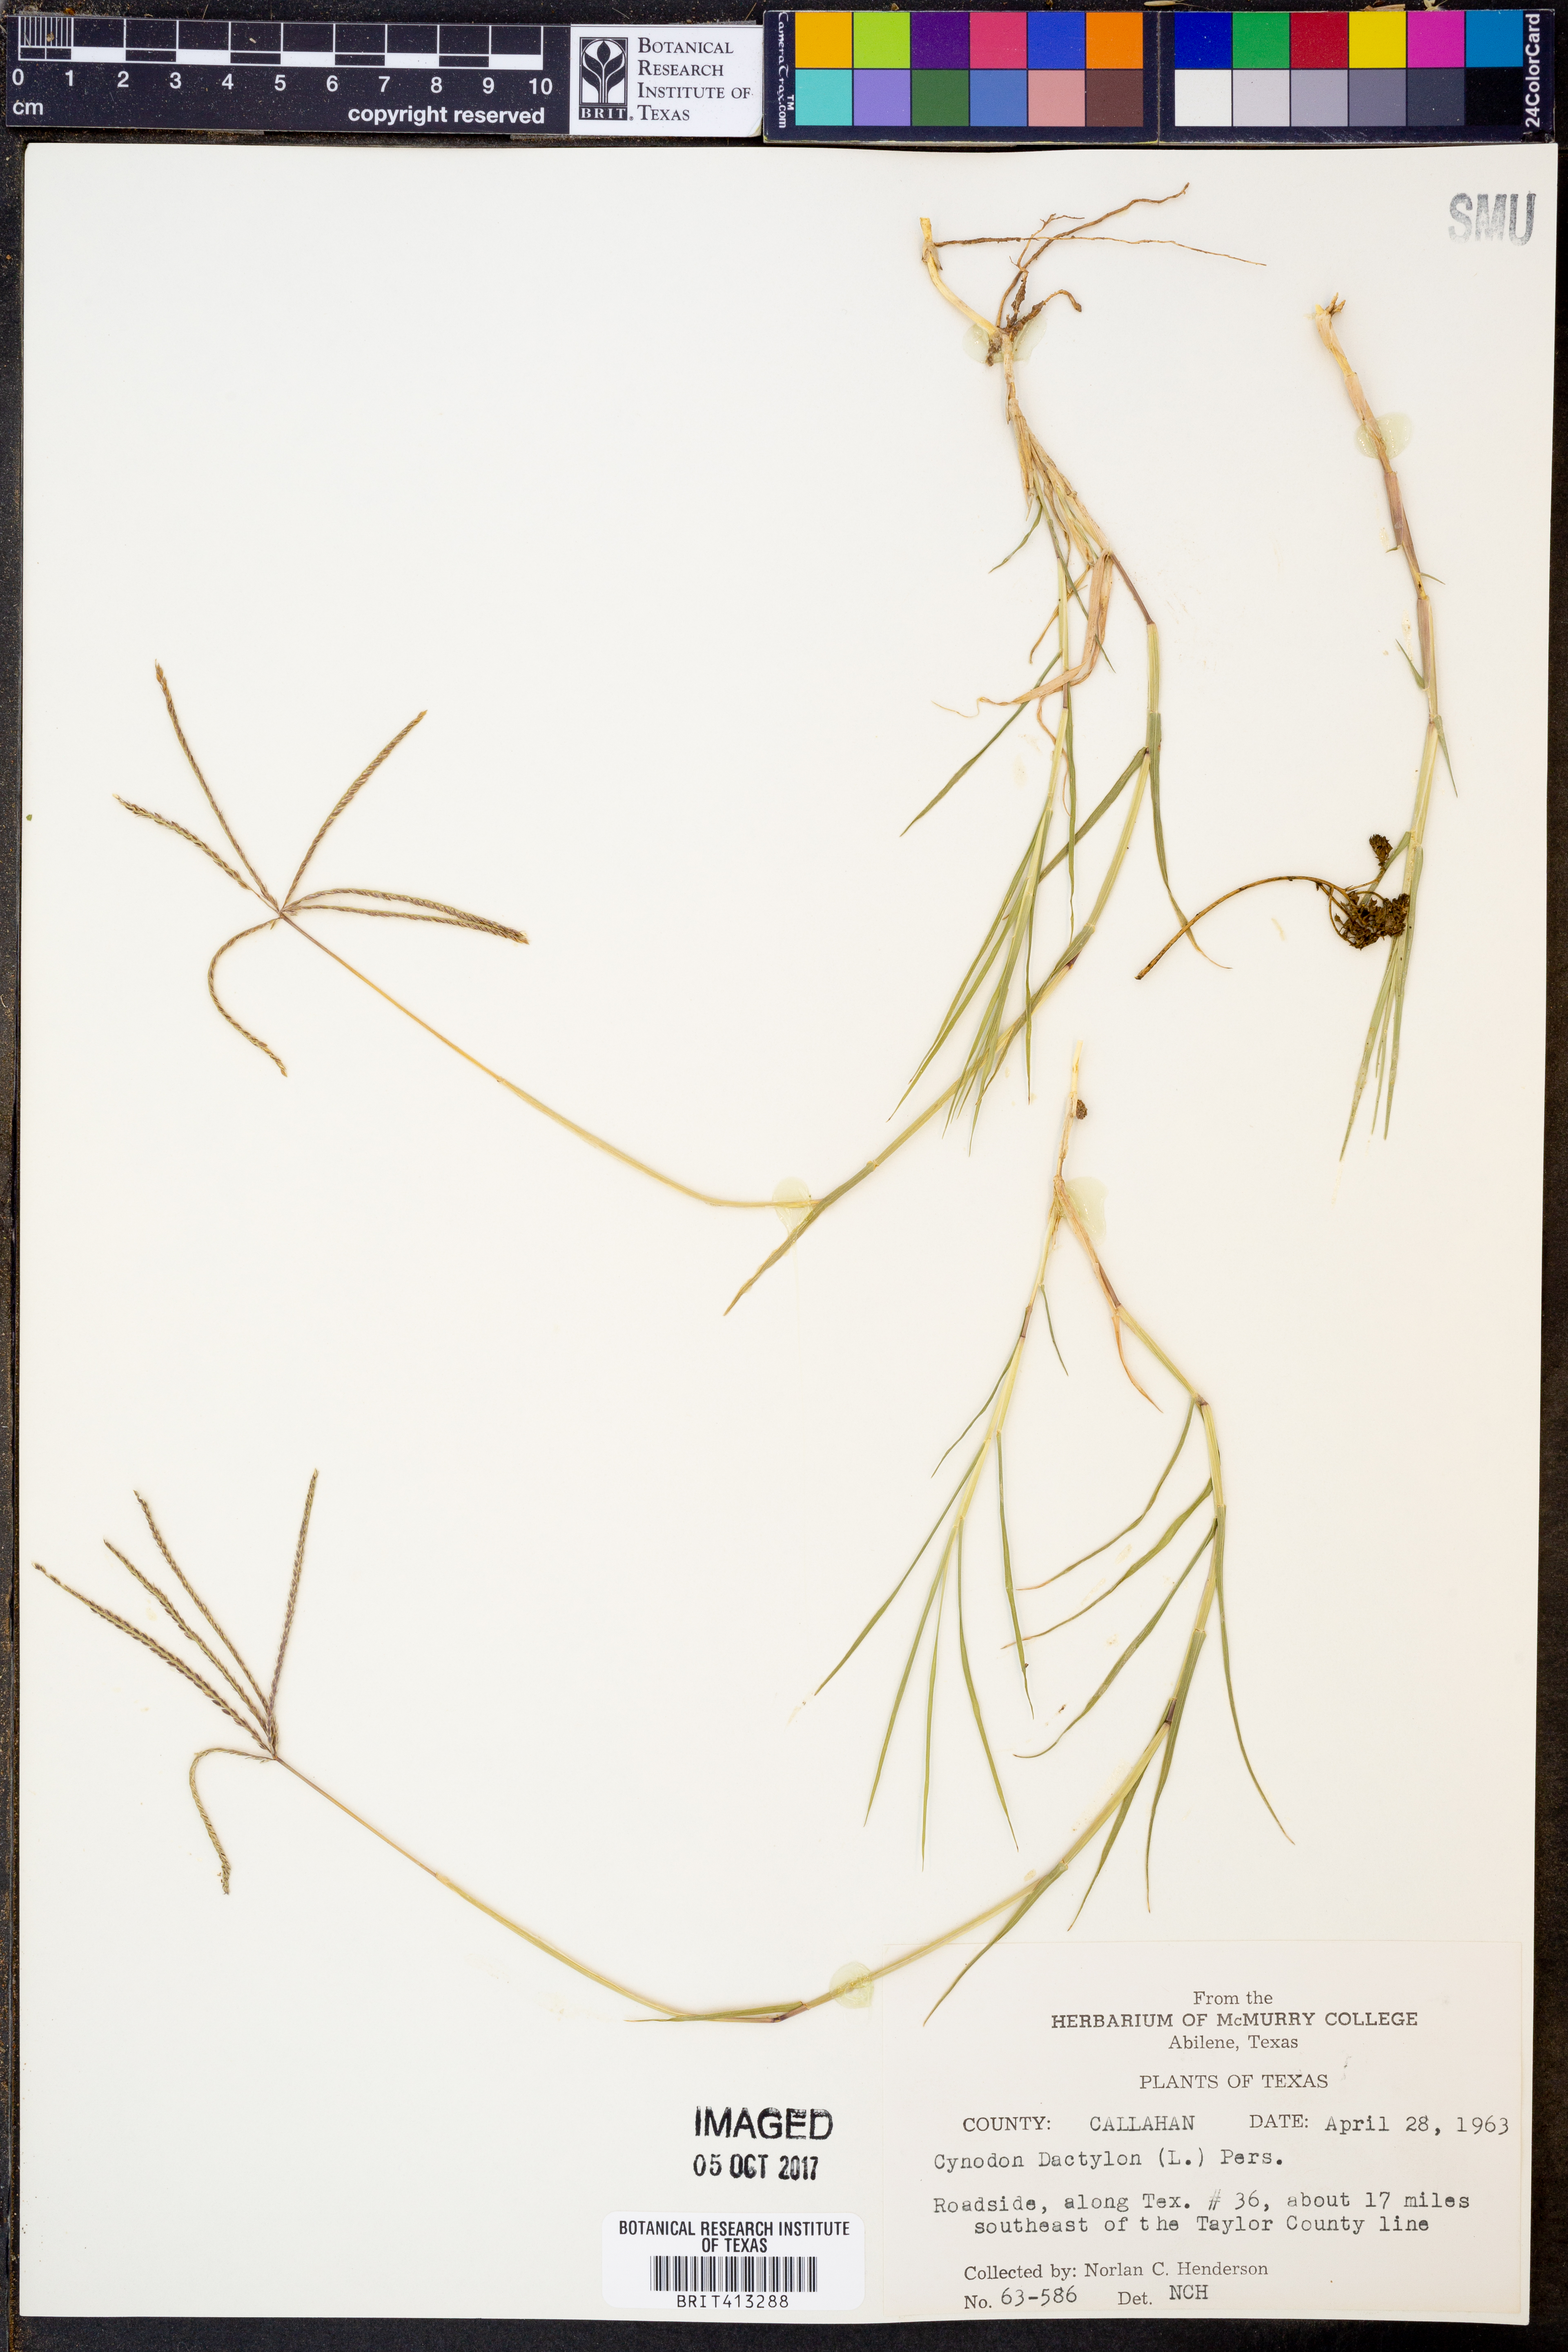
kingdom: Plantae
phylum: Tracheophyta
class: Liliopsida
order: Poales
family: Poaceae
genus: Cynodon
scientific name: Cynodon dactylon
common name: Bermuda grass
